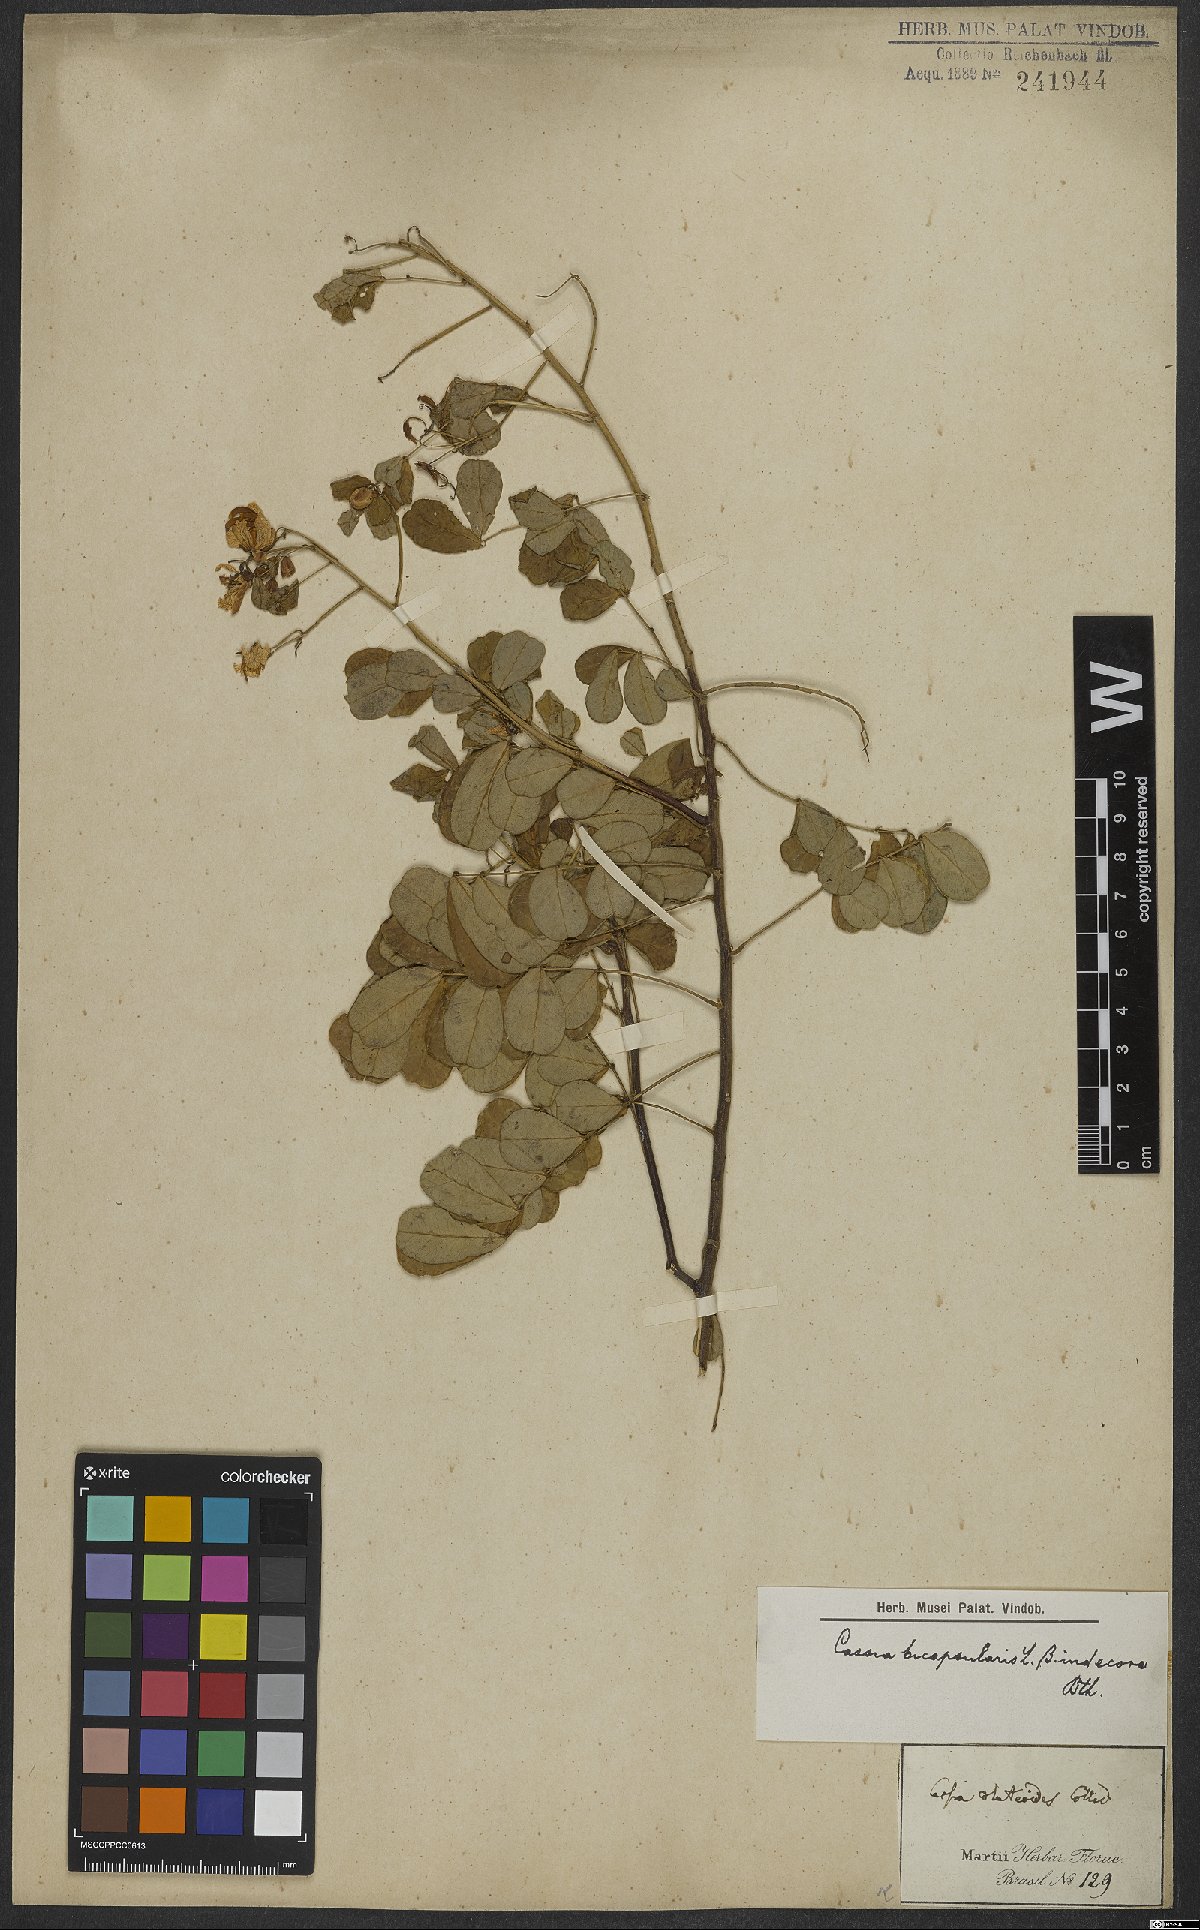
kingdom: Plantae
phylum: Tracheophyta
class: Magnoliopsida
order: Fabales
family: Fabaceae
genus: Senna
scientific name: Senna bicapsularis
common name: Christmasbush
